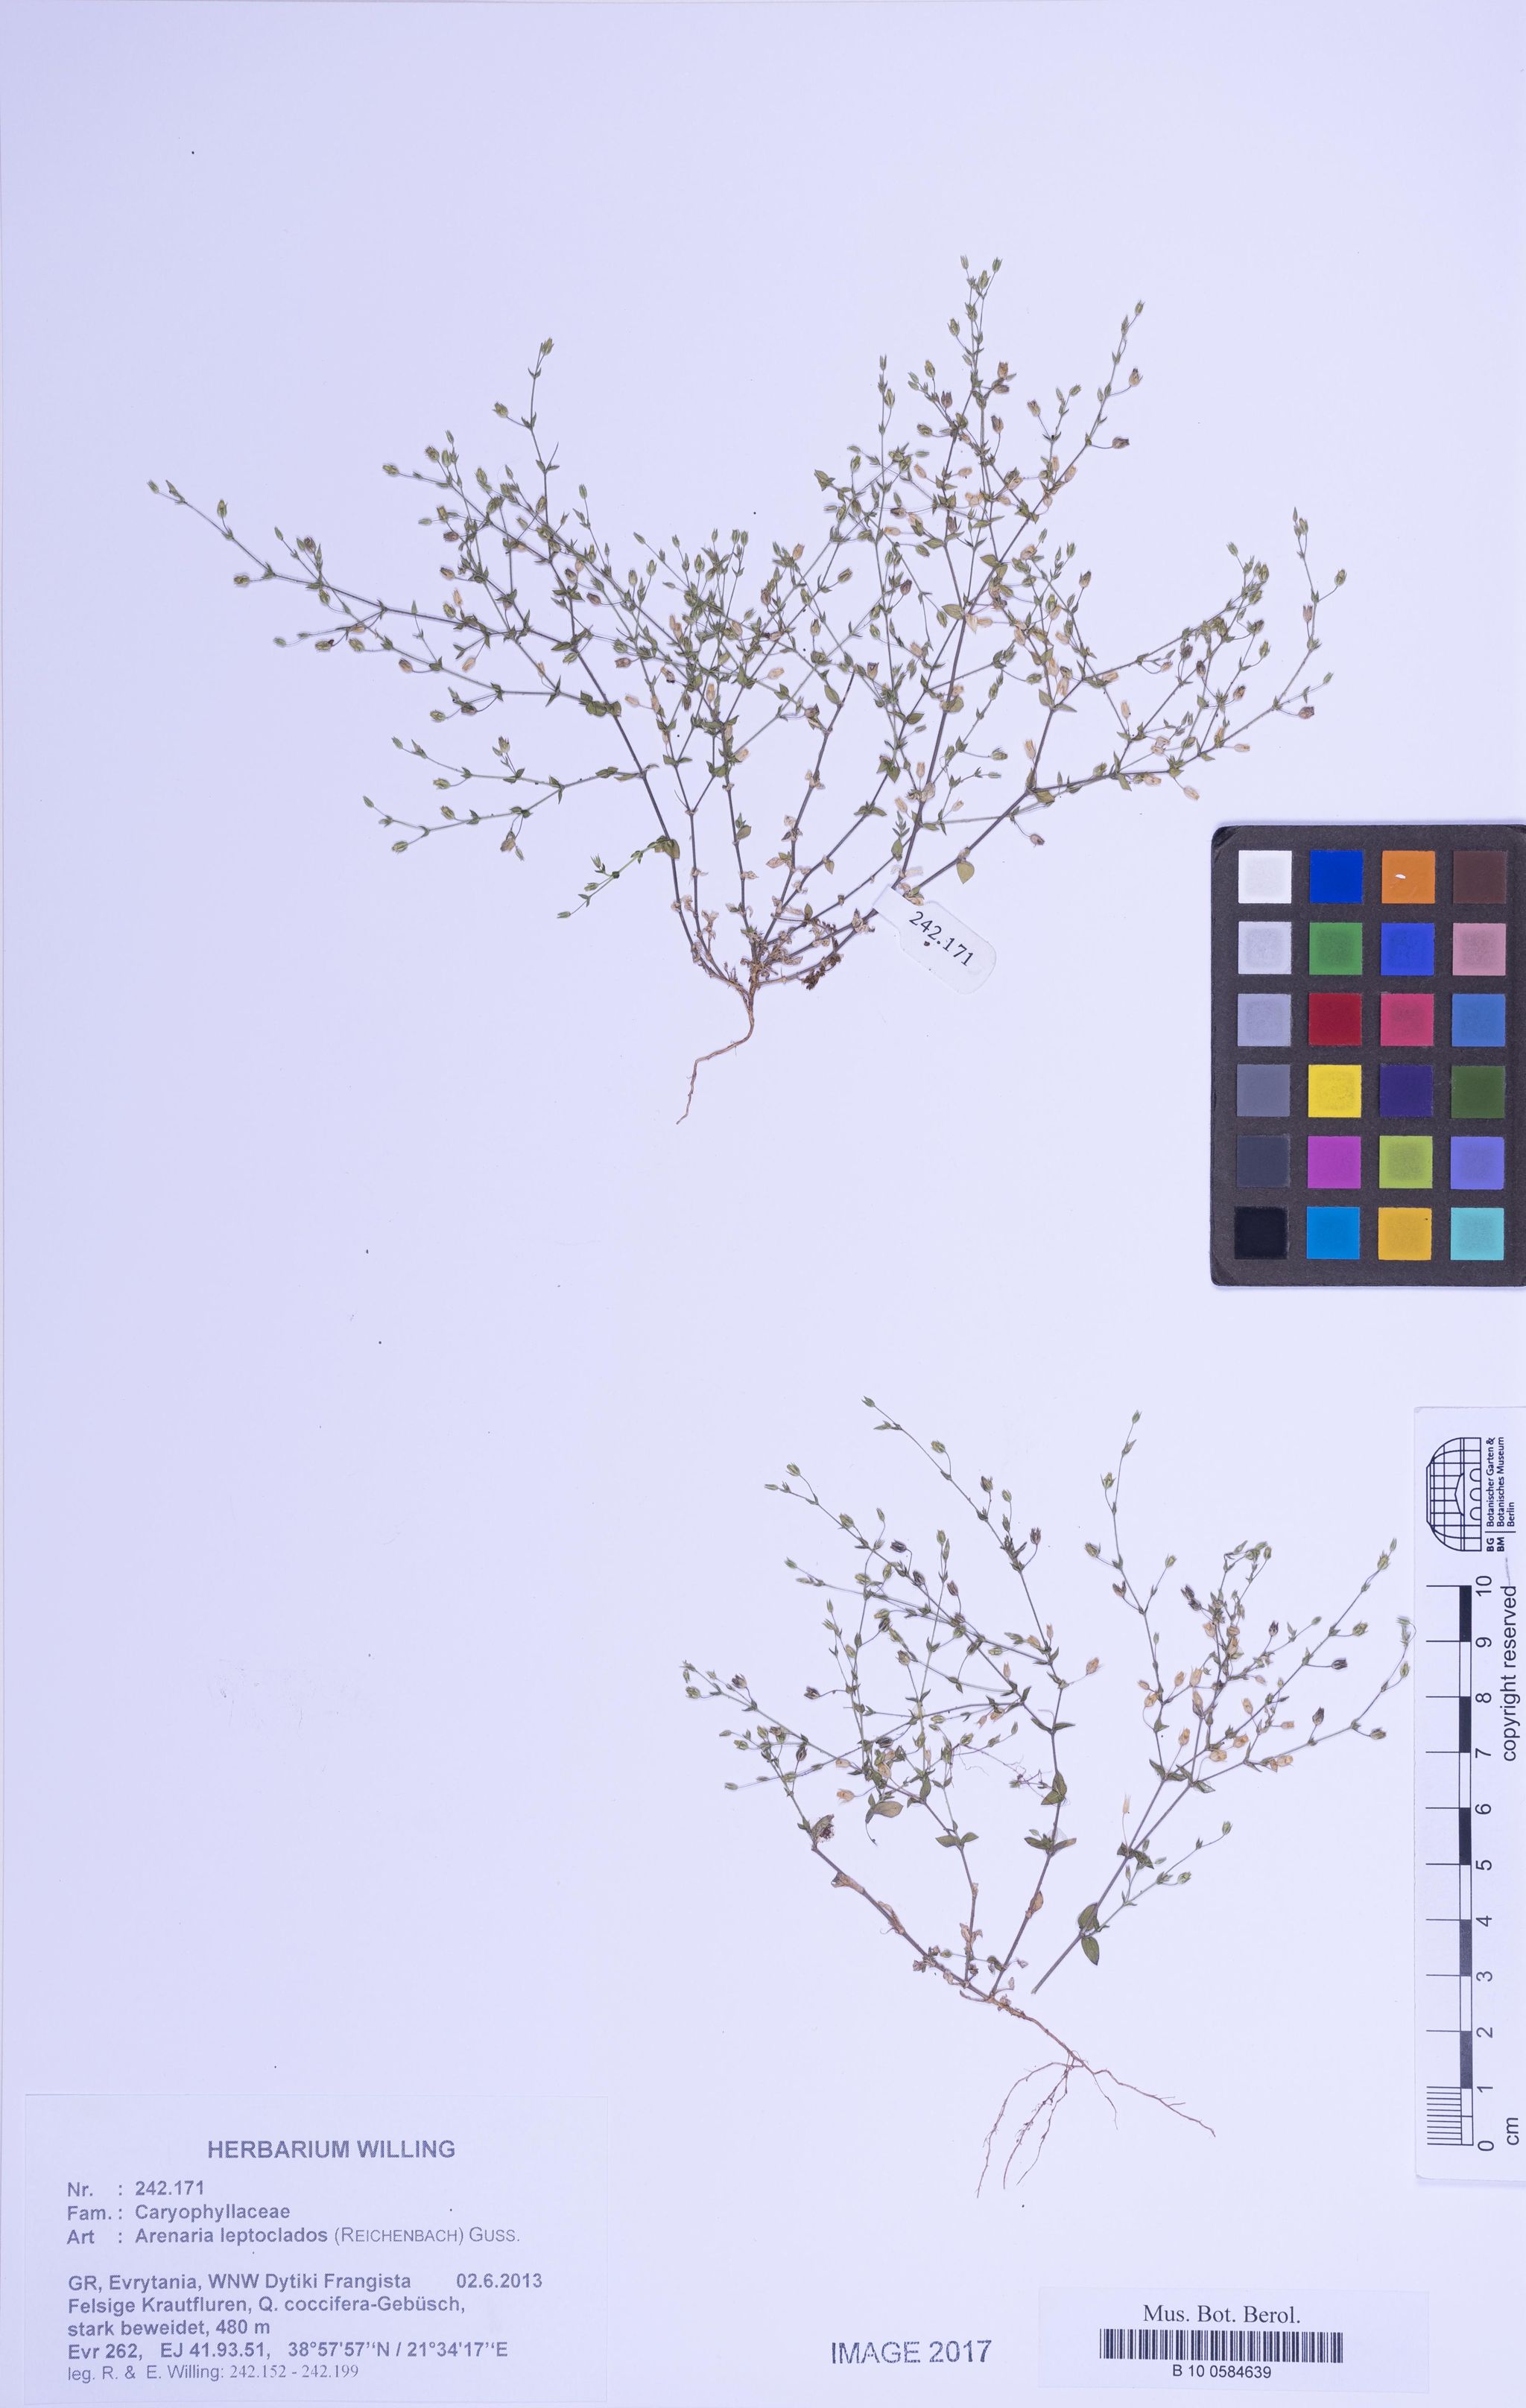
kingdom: Plantae
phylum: Tracheophyta
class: Magnoliopsida
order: Caryophyllales
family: Caryophyllaceae
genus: Arenaria
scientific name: Arenaria leptoclados
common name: Thyme-leaved sandwort
